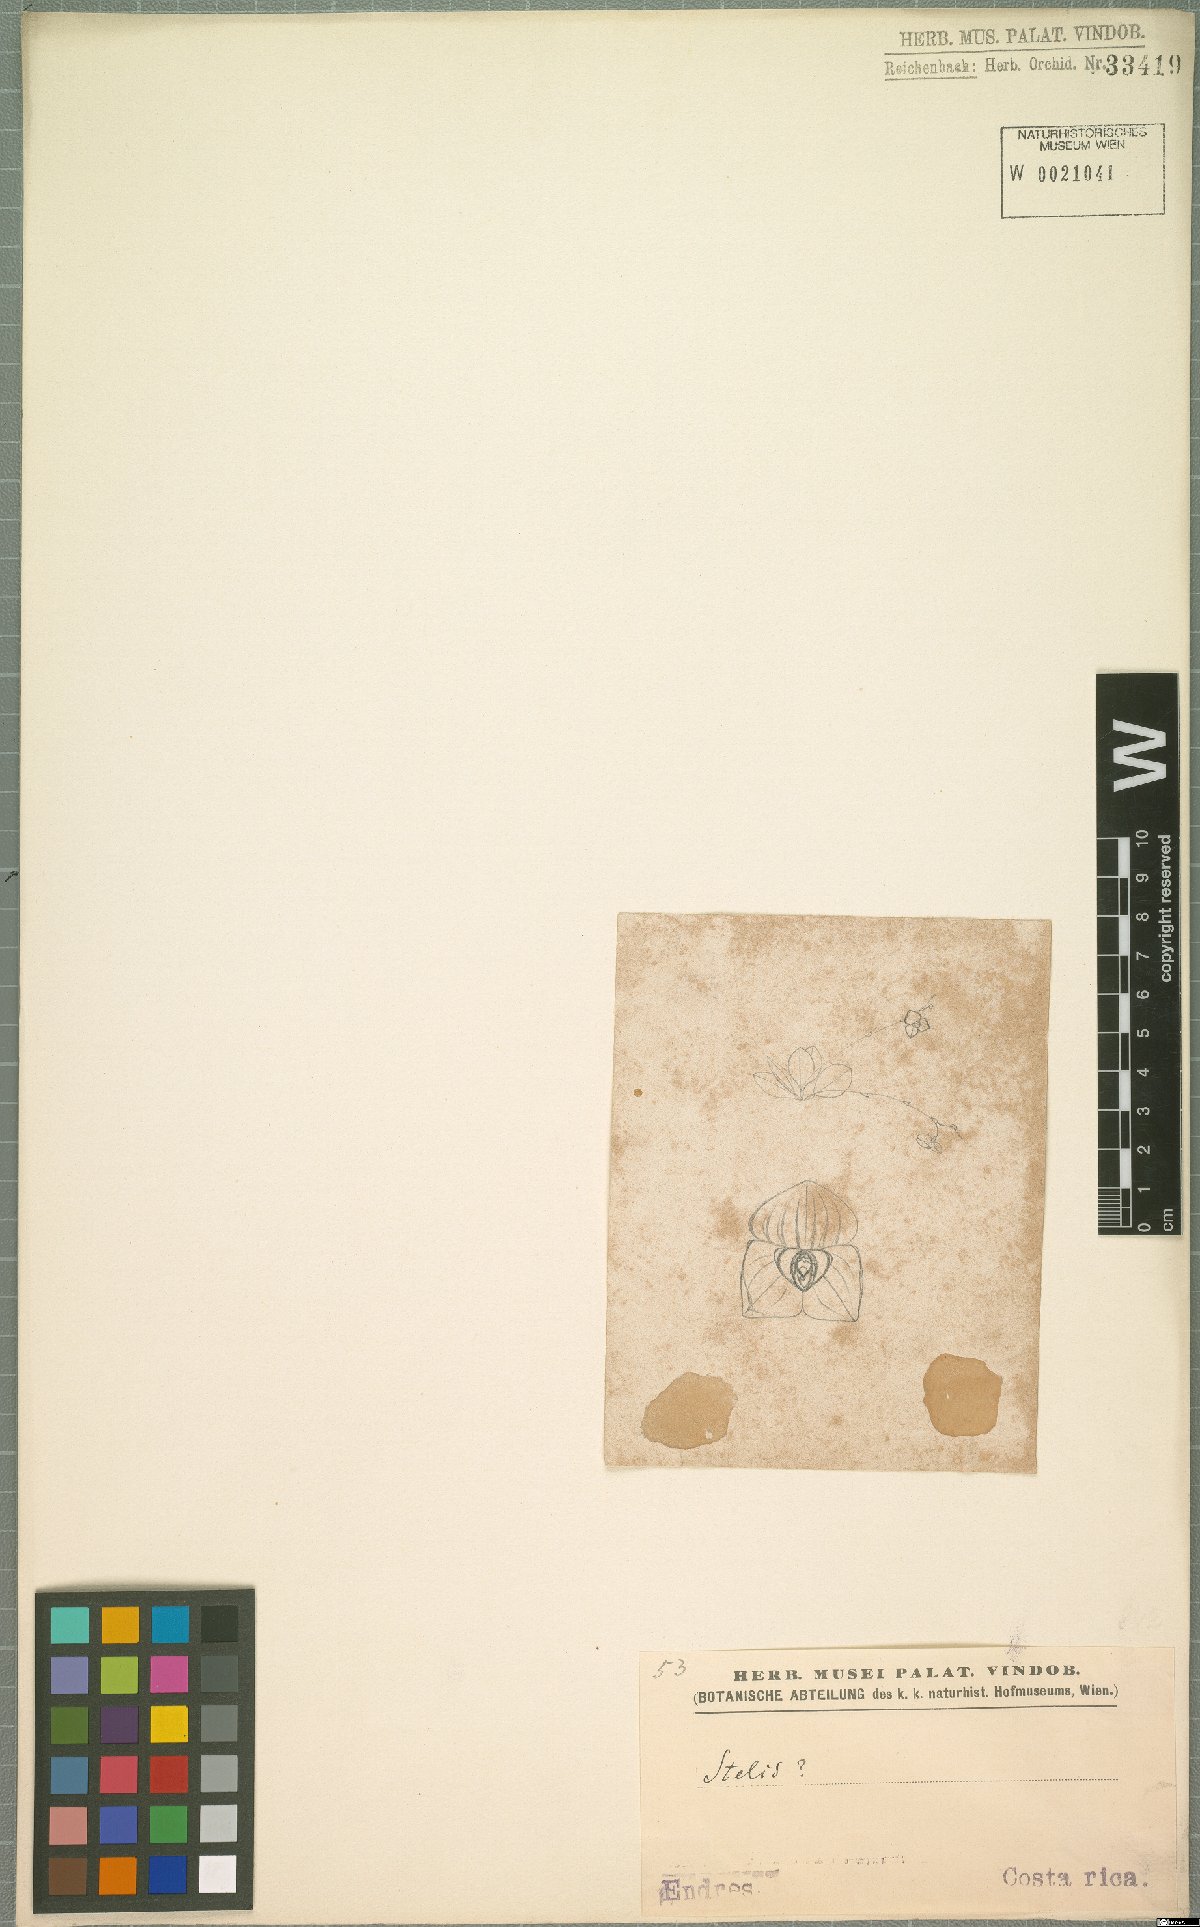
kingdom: Plantae
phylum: Tracheophyta
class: Liliopsida
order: Asparagales
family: Orchidaceae
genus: Stelis
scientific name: Stelis
